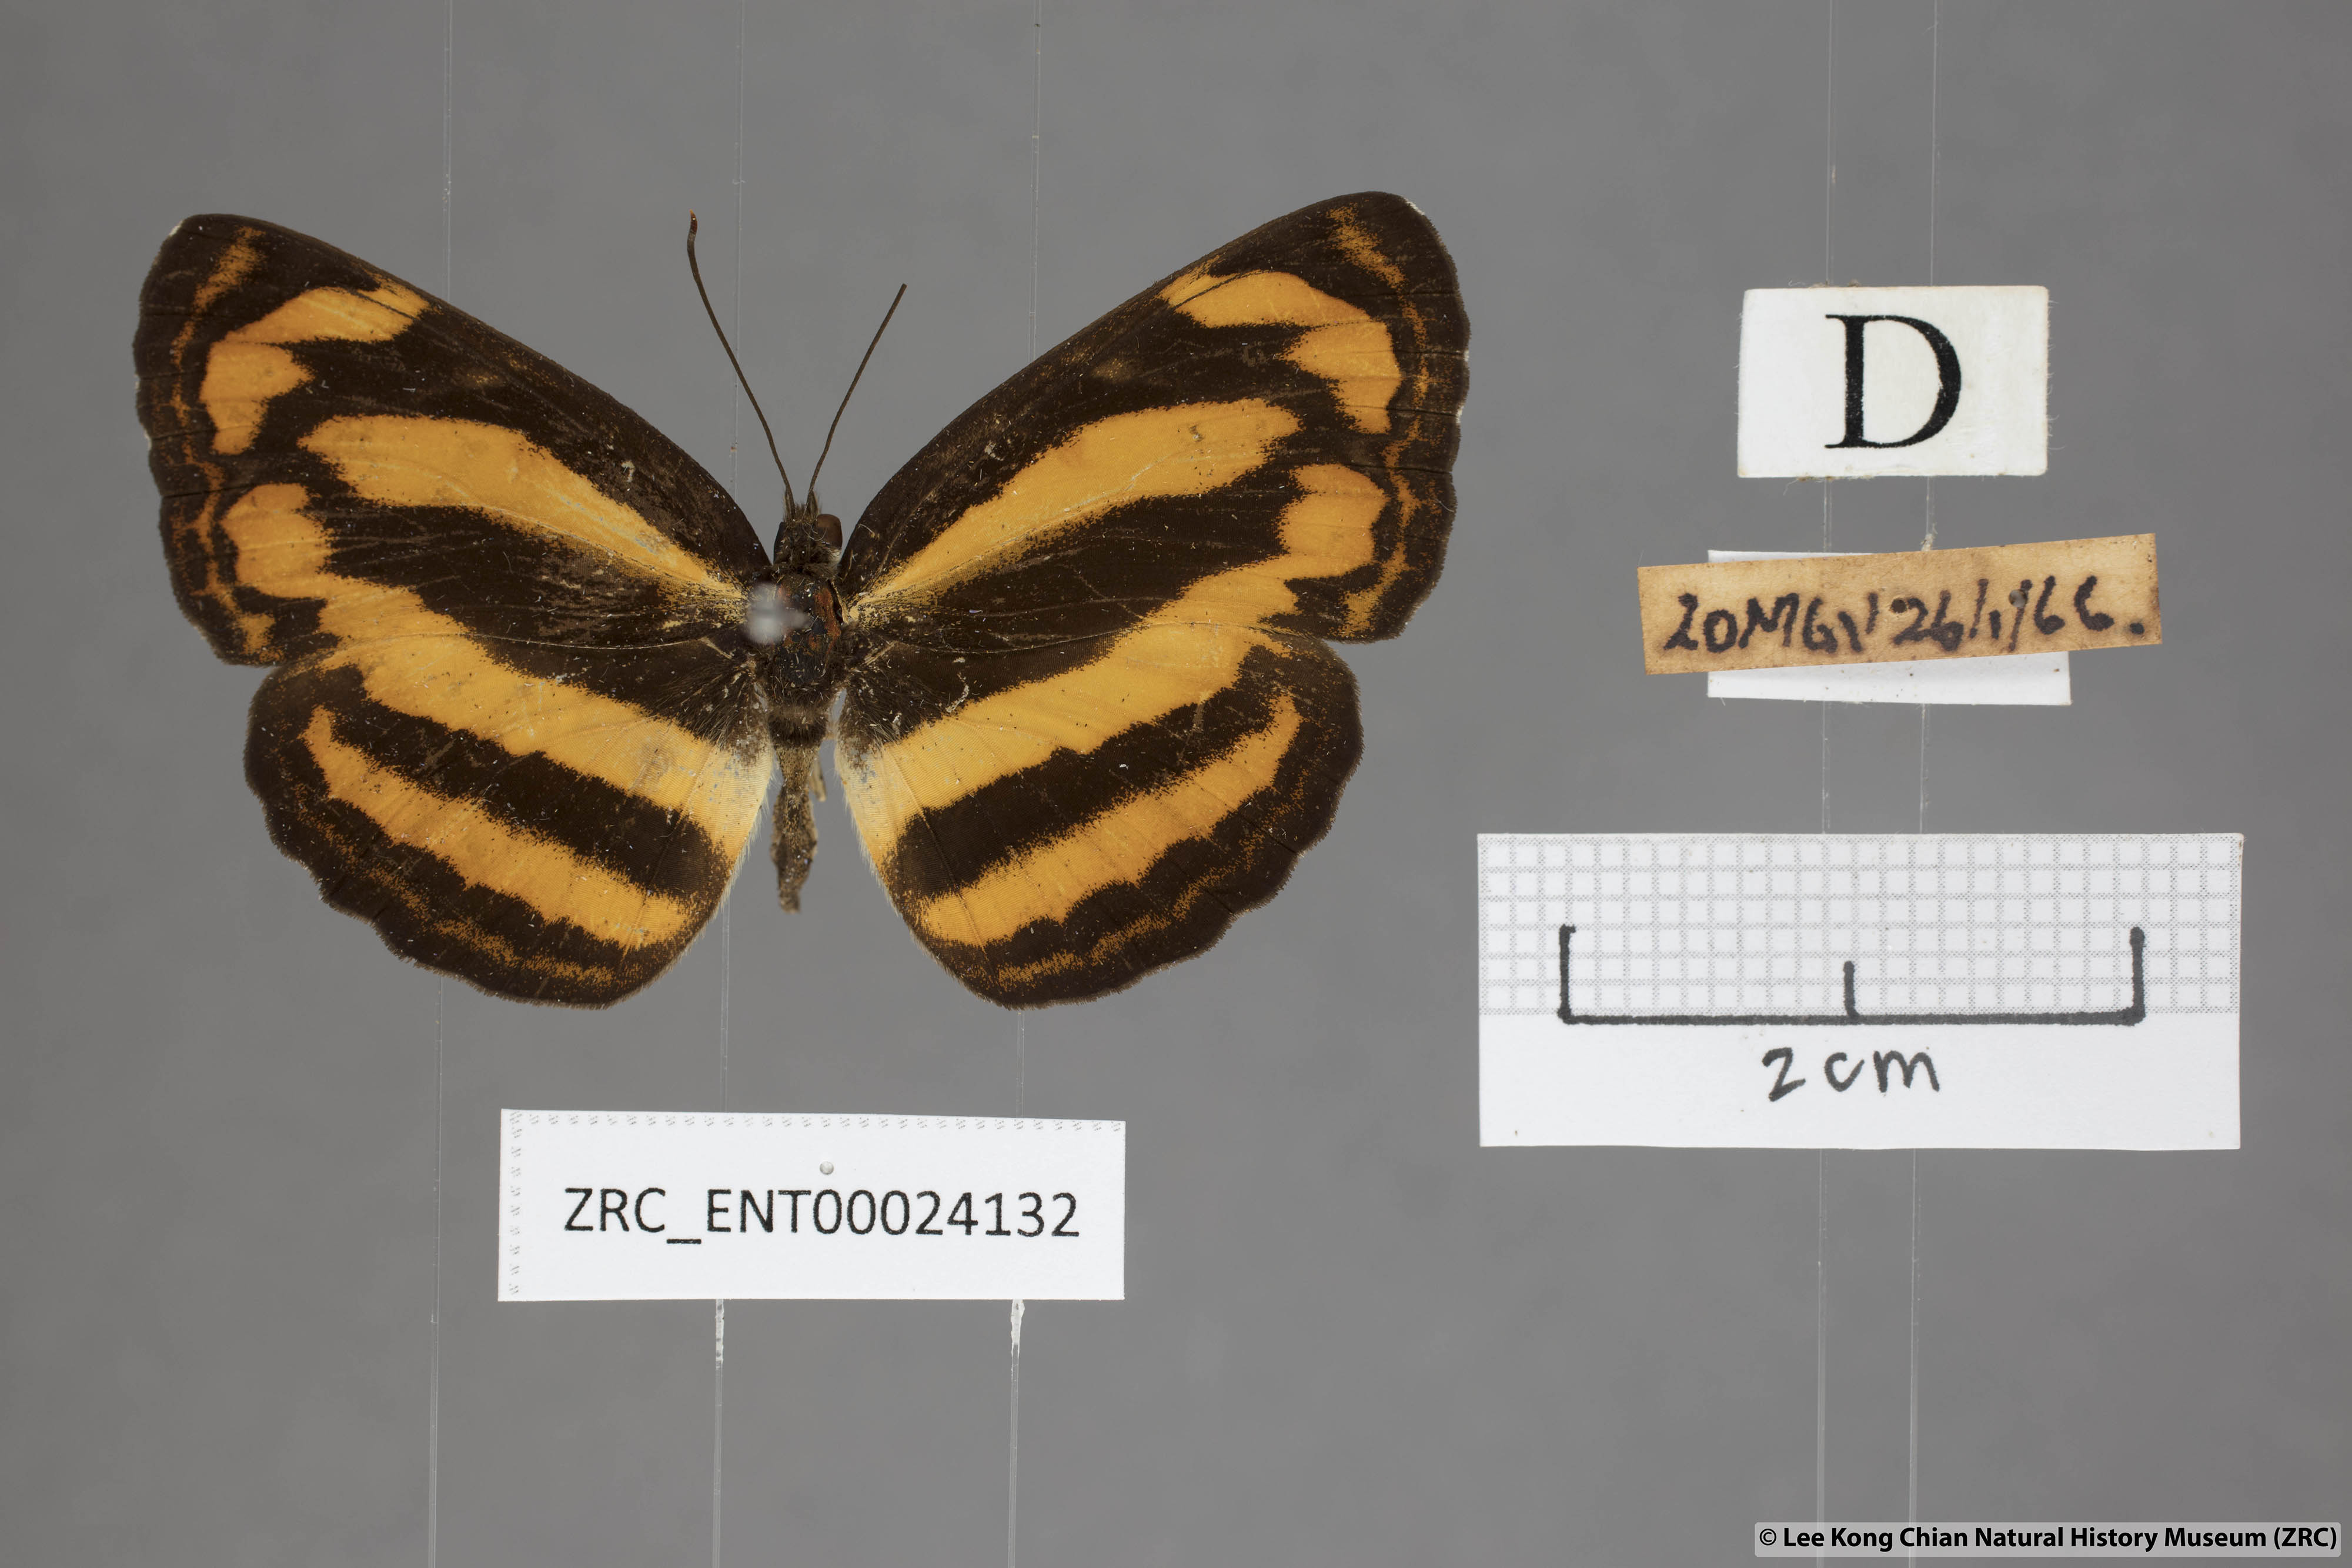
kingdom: Animalia
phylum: Arthropoda
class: Insecta
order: Lepidoptera
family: Nymphalidae
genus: Pantoporia
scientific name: Pantoporia hordonia
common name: Common lascar
